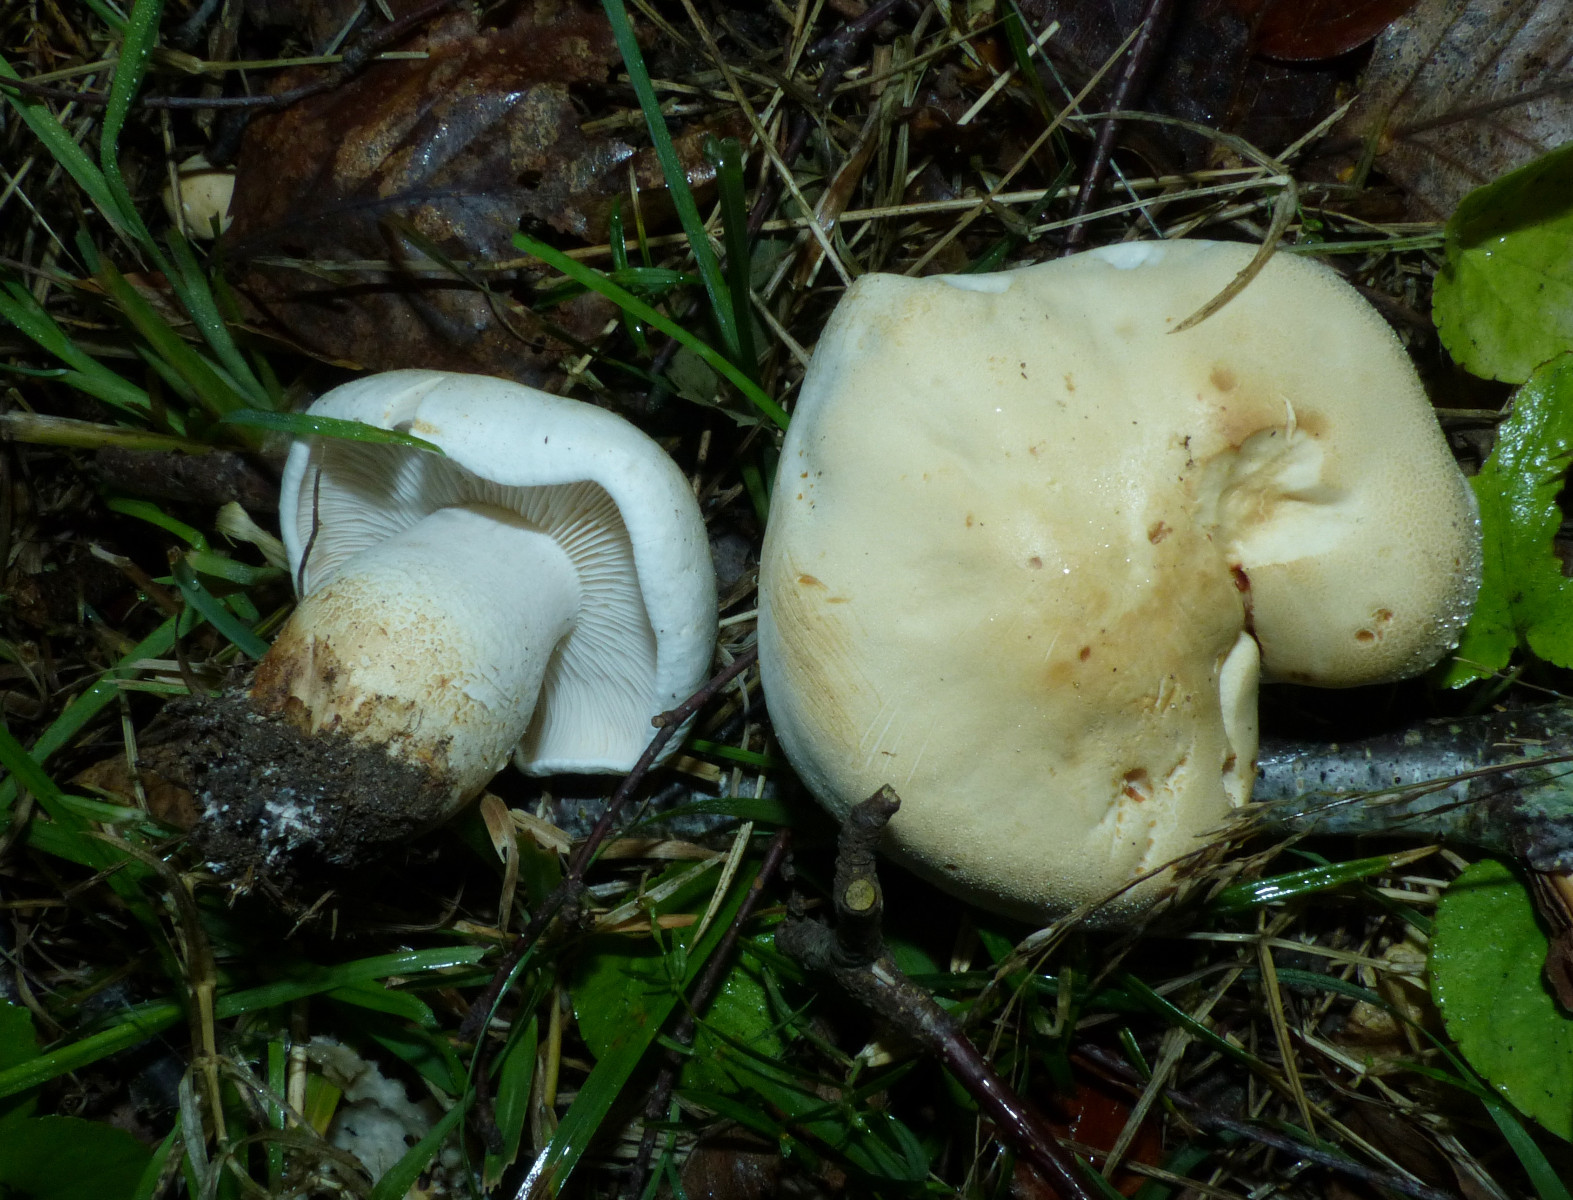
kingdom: Fungi
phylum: Basidiomycota
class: Agaricomycetes
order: Agaricales
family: Tricholomataceae
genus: Tricholoma
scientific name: Tricholoma stiparophyllum
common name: hvid ridderhat
